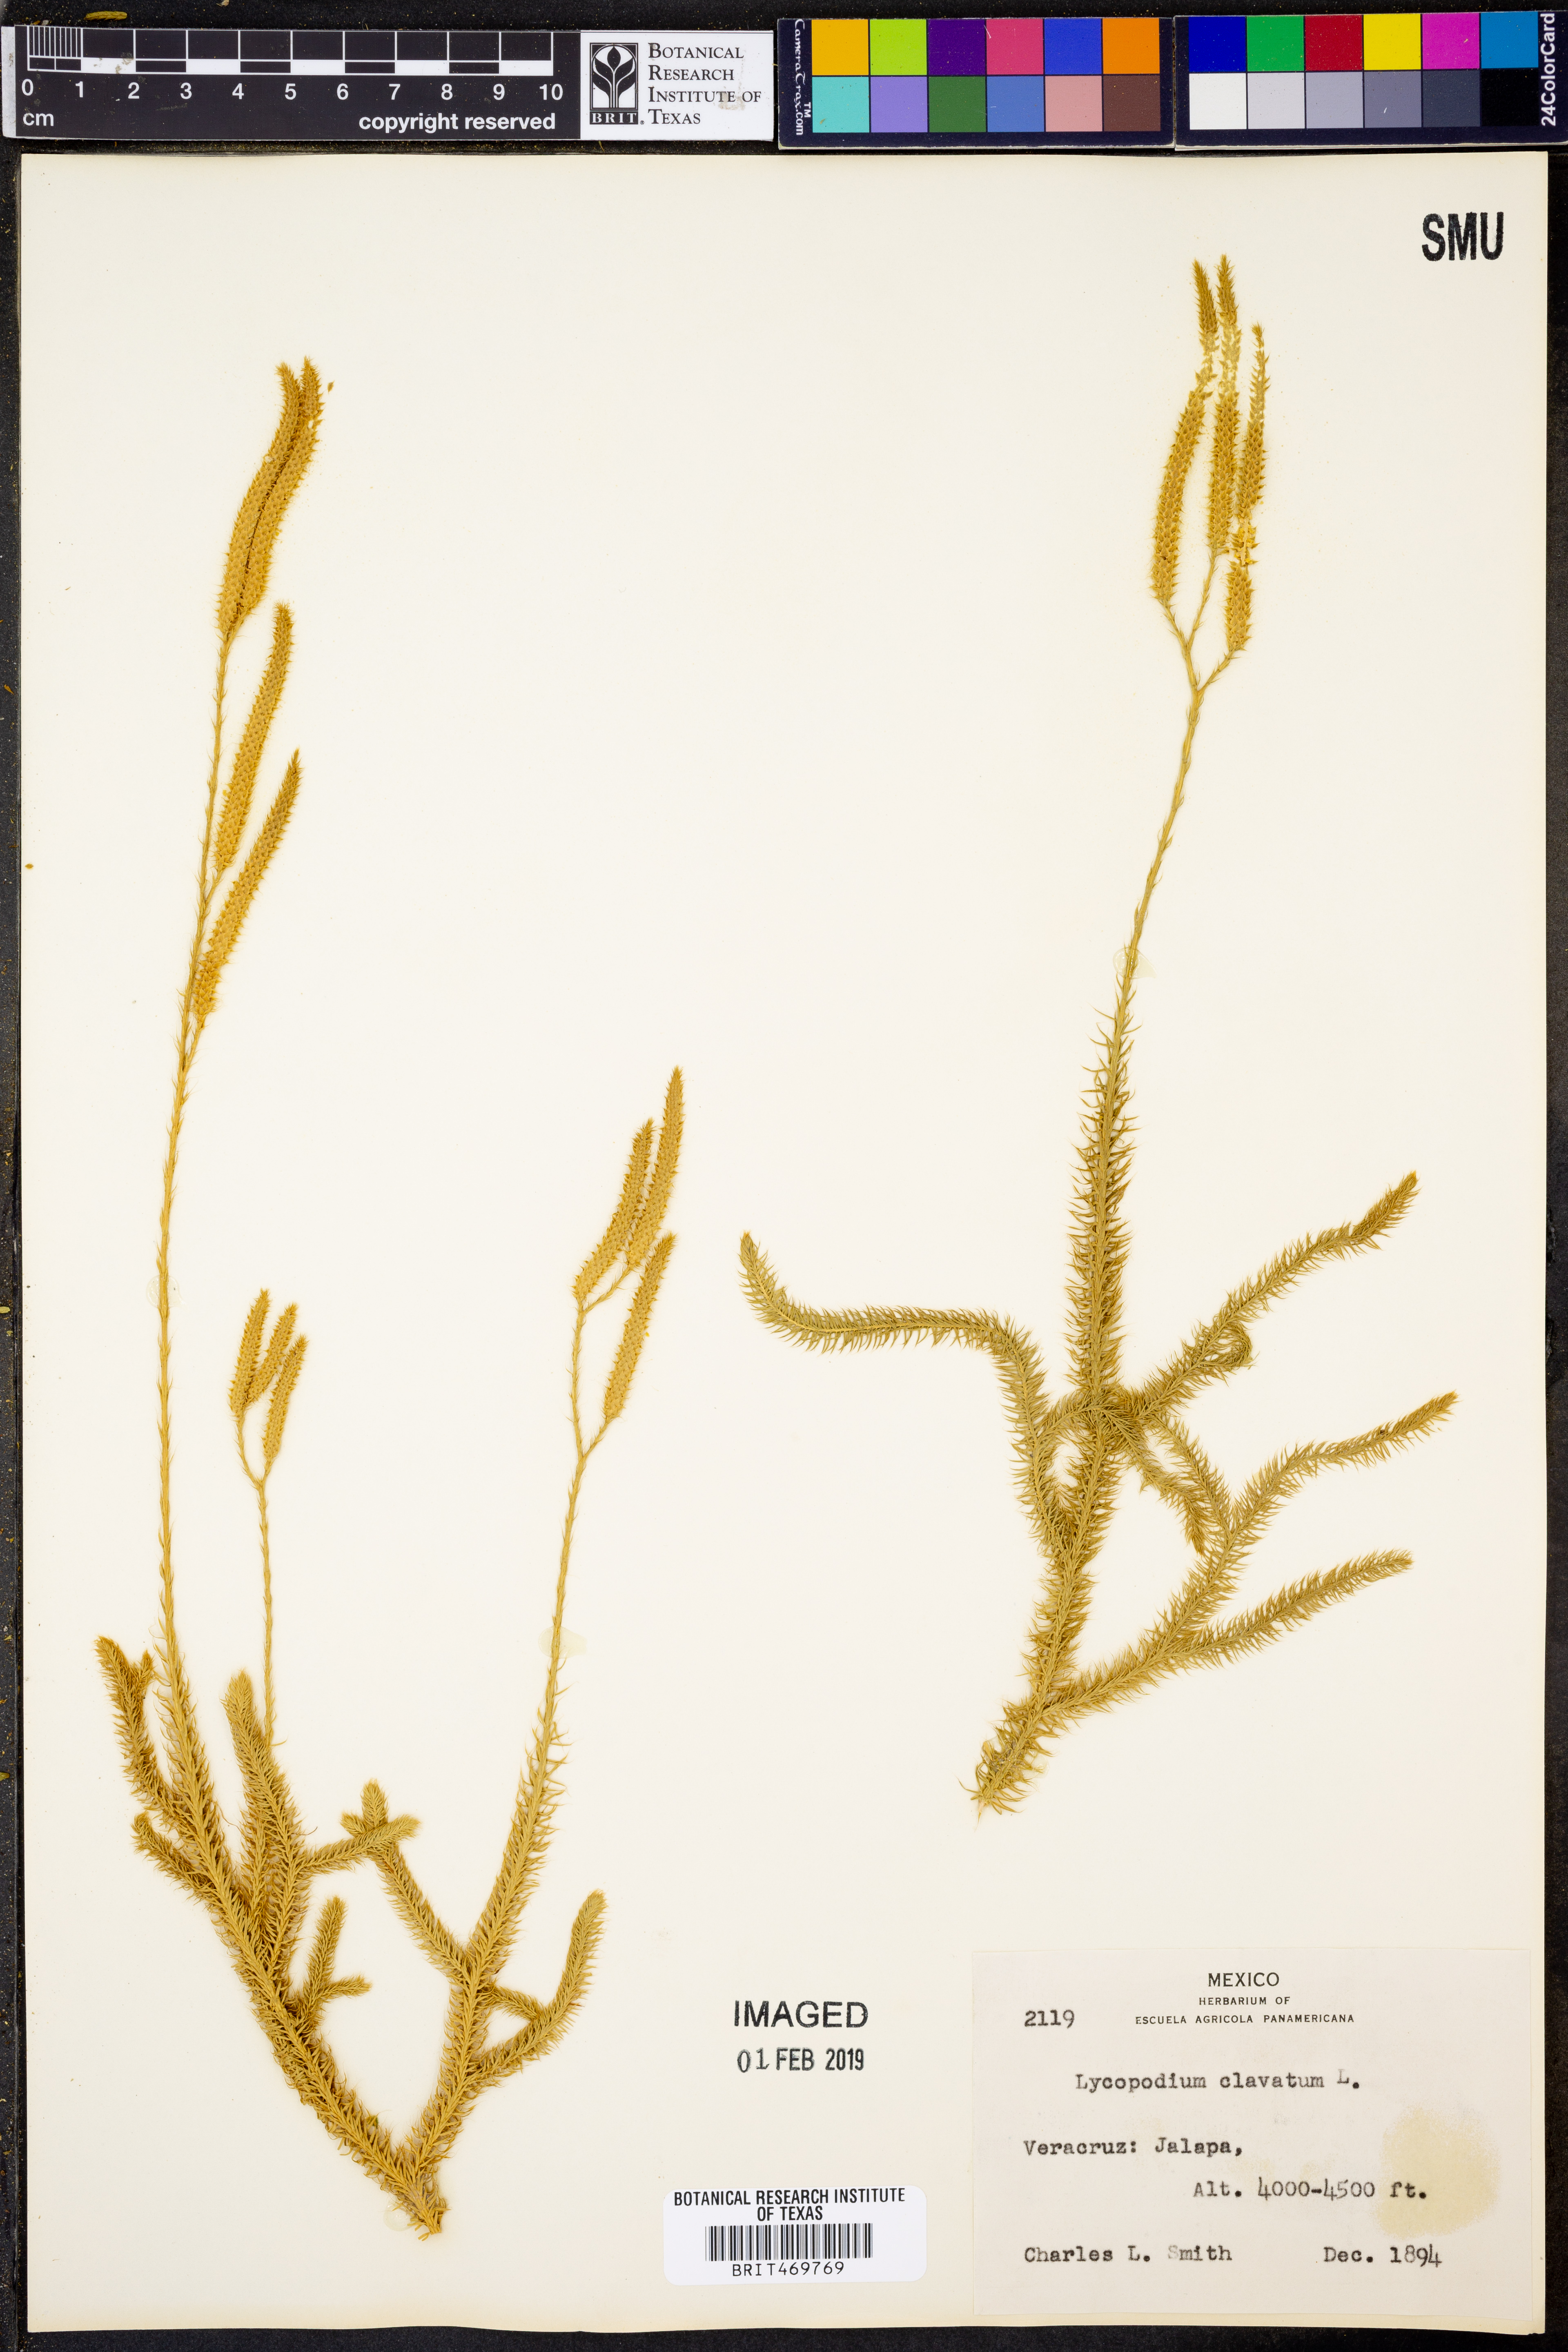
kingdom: Plantae
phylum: Tracheophyta
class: Lycopodiopsida
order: Lycopodiales
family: Lycopodiaceae
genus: Lycopodium
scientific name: Lycopodium clavatum
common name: Stag's-horn clubmoss
